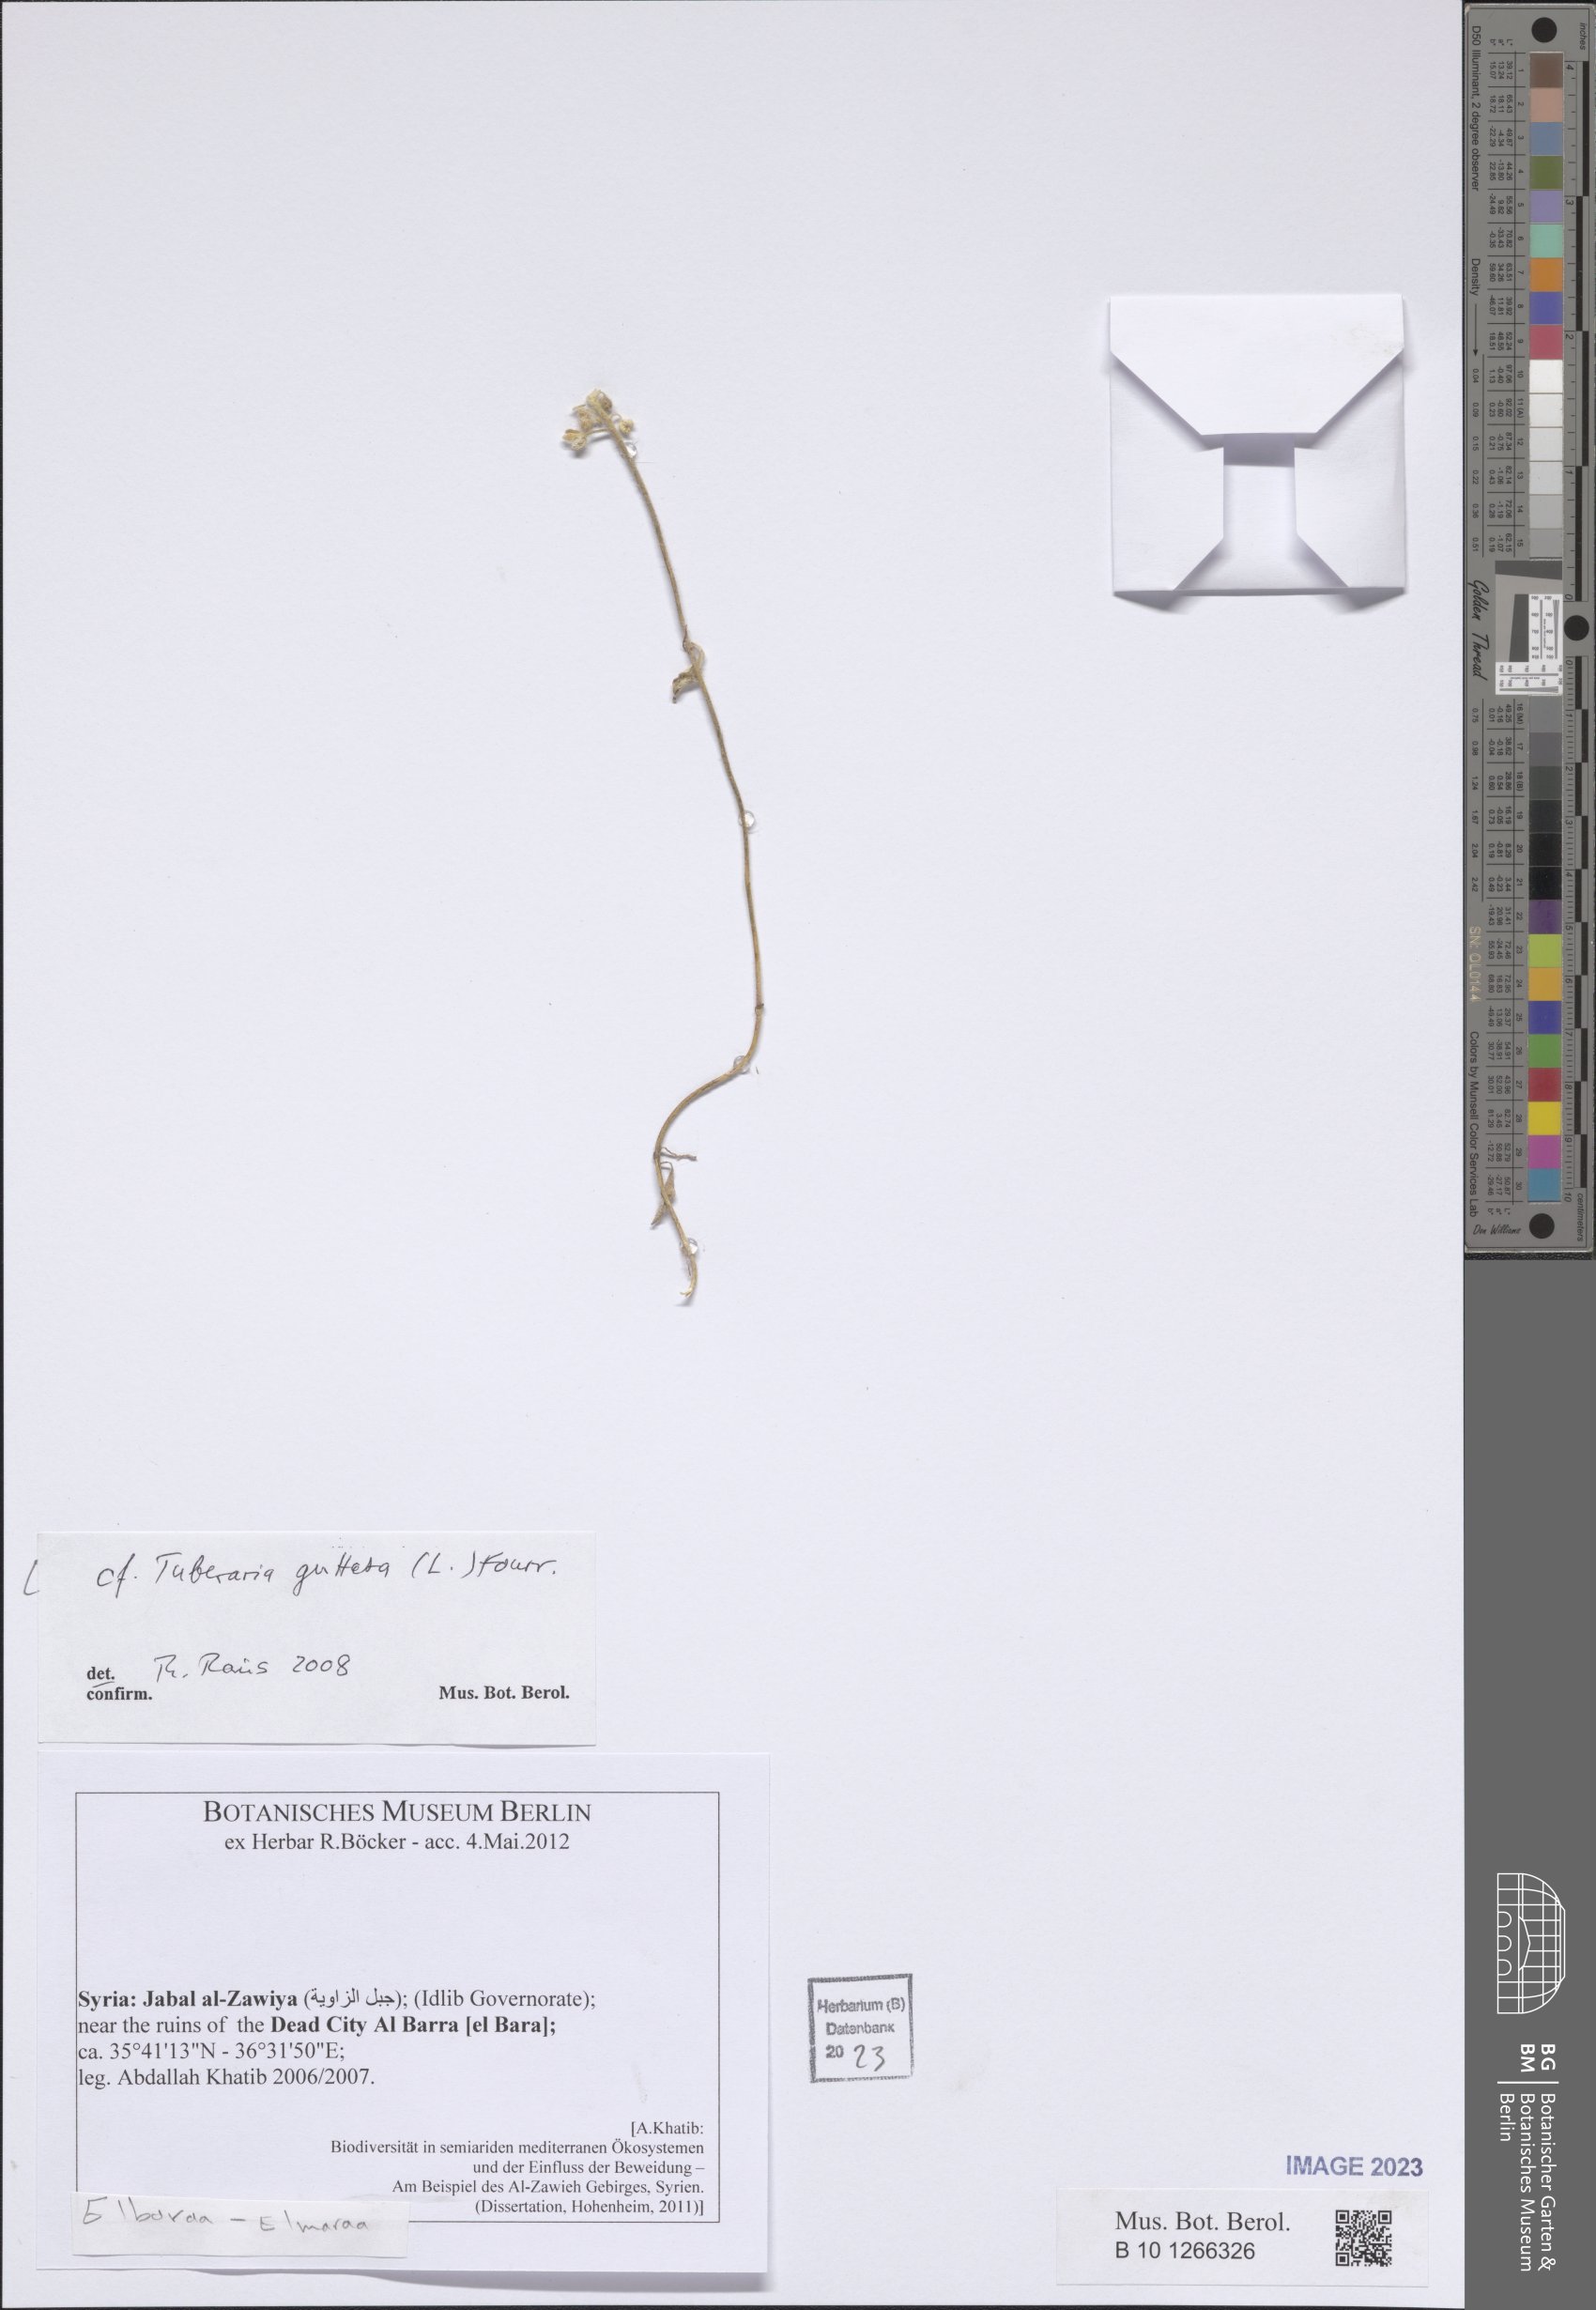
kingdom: Plantae
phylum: Tracheophyta
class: Magnoliopsida
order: Malvales
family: Cistaceae
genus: Tuberaria
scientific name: Tuberaria guttata
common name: Spotted rock-rose
